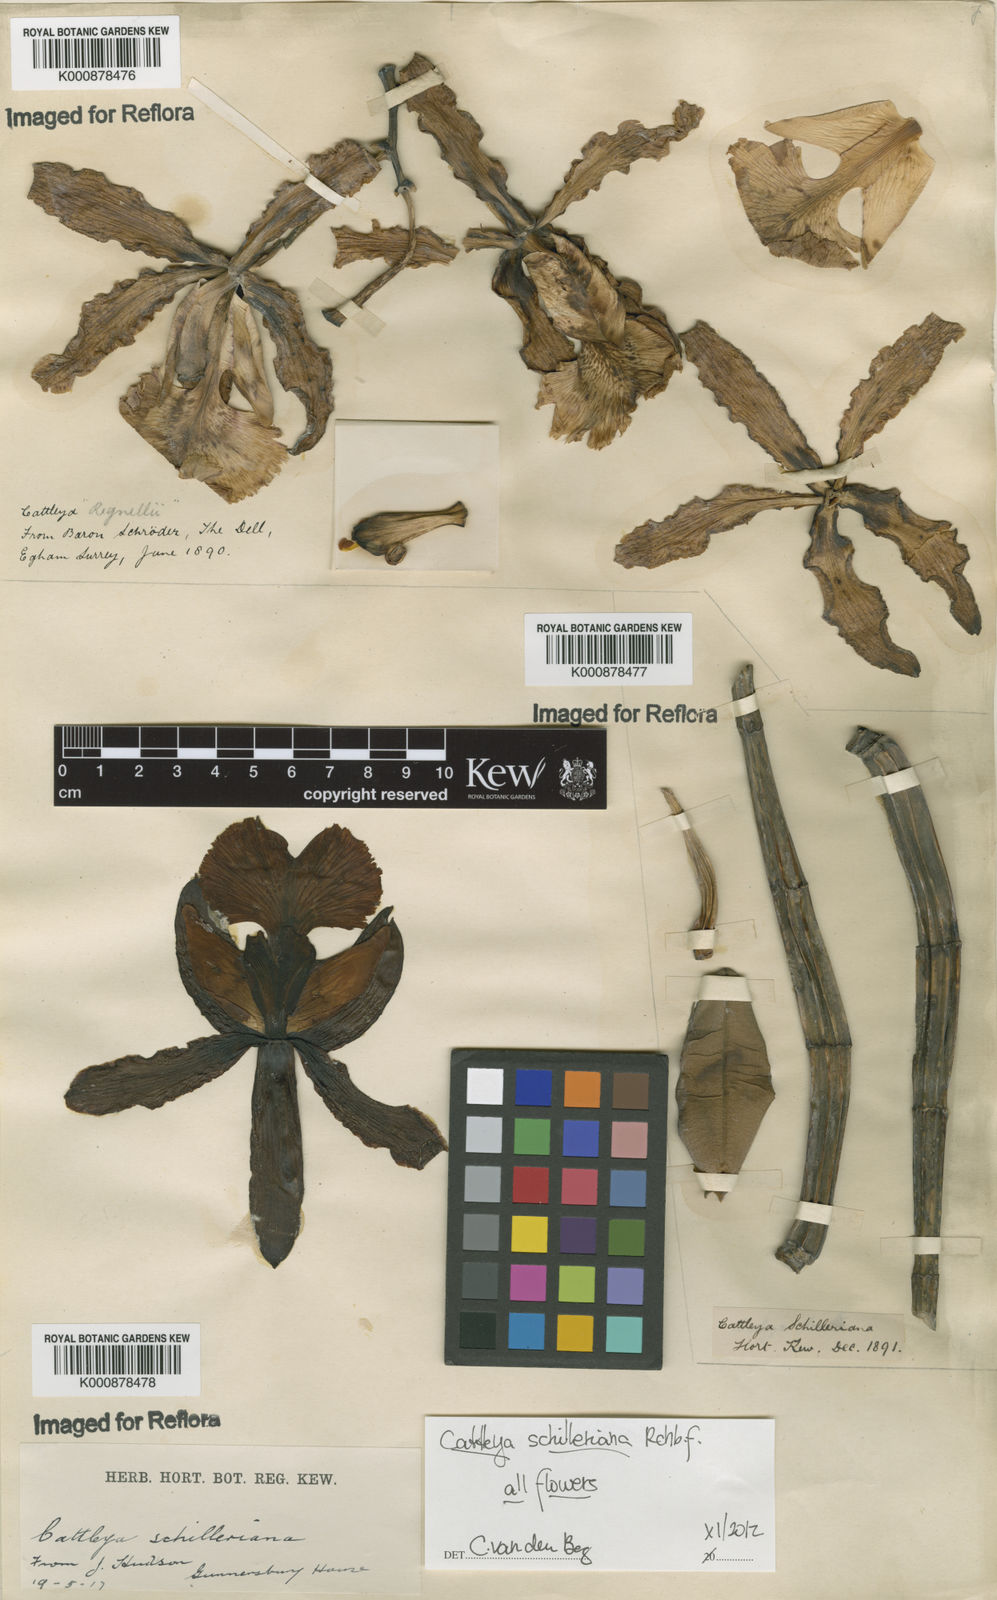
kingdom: Plantae
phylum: Tracheophyta
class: Liliopsida
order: Asparagales
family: Orchidaceae
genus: Cattleya
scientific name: Cattleya
